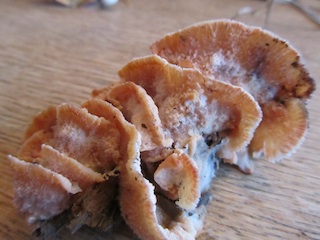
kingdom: Fungi
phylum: Basidiomycota
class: Agaricomycetes
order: Polyporales
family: Meruliaceae
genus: Phlebia
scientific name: Phlebia tremellosa
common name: bævrende åresvamp
